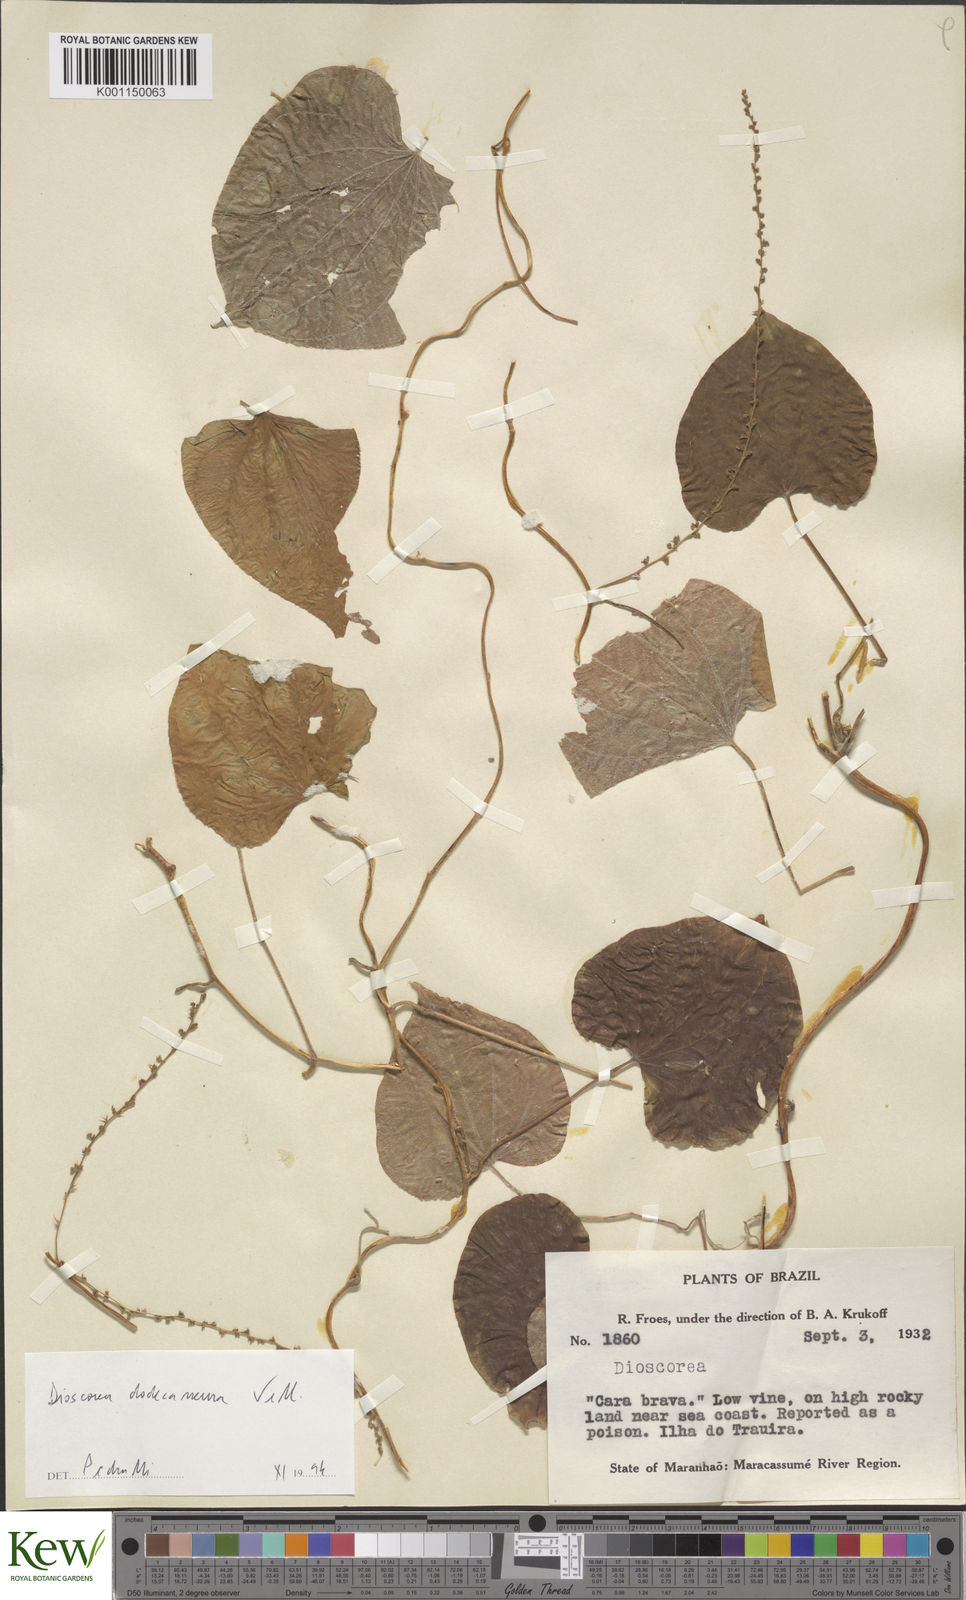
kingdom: Plantae
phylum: Tracheophyta
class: Liliopsida
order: Dioscoreales
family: Dioscoreaceae
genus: Dioscorea
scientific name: Dioscorea stegelmanniana
